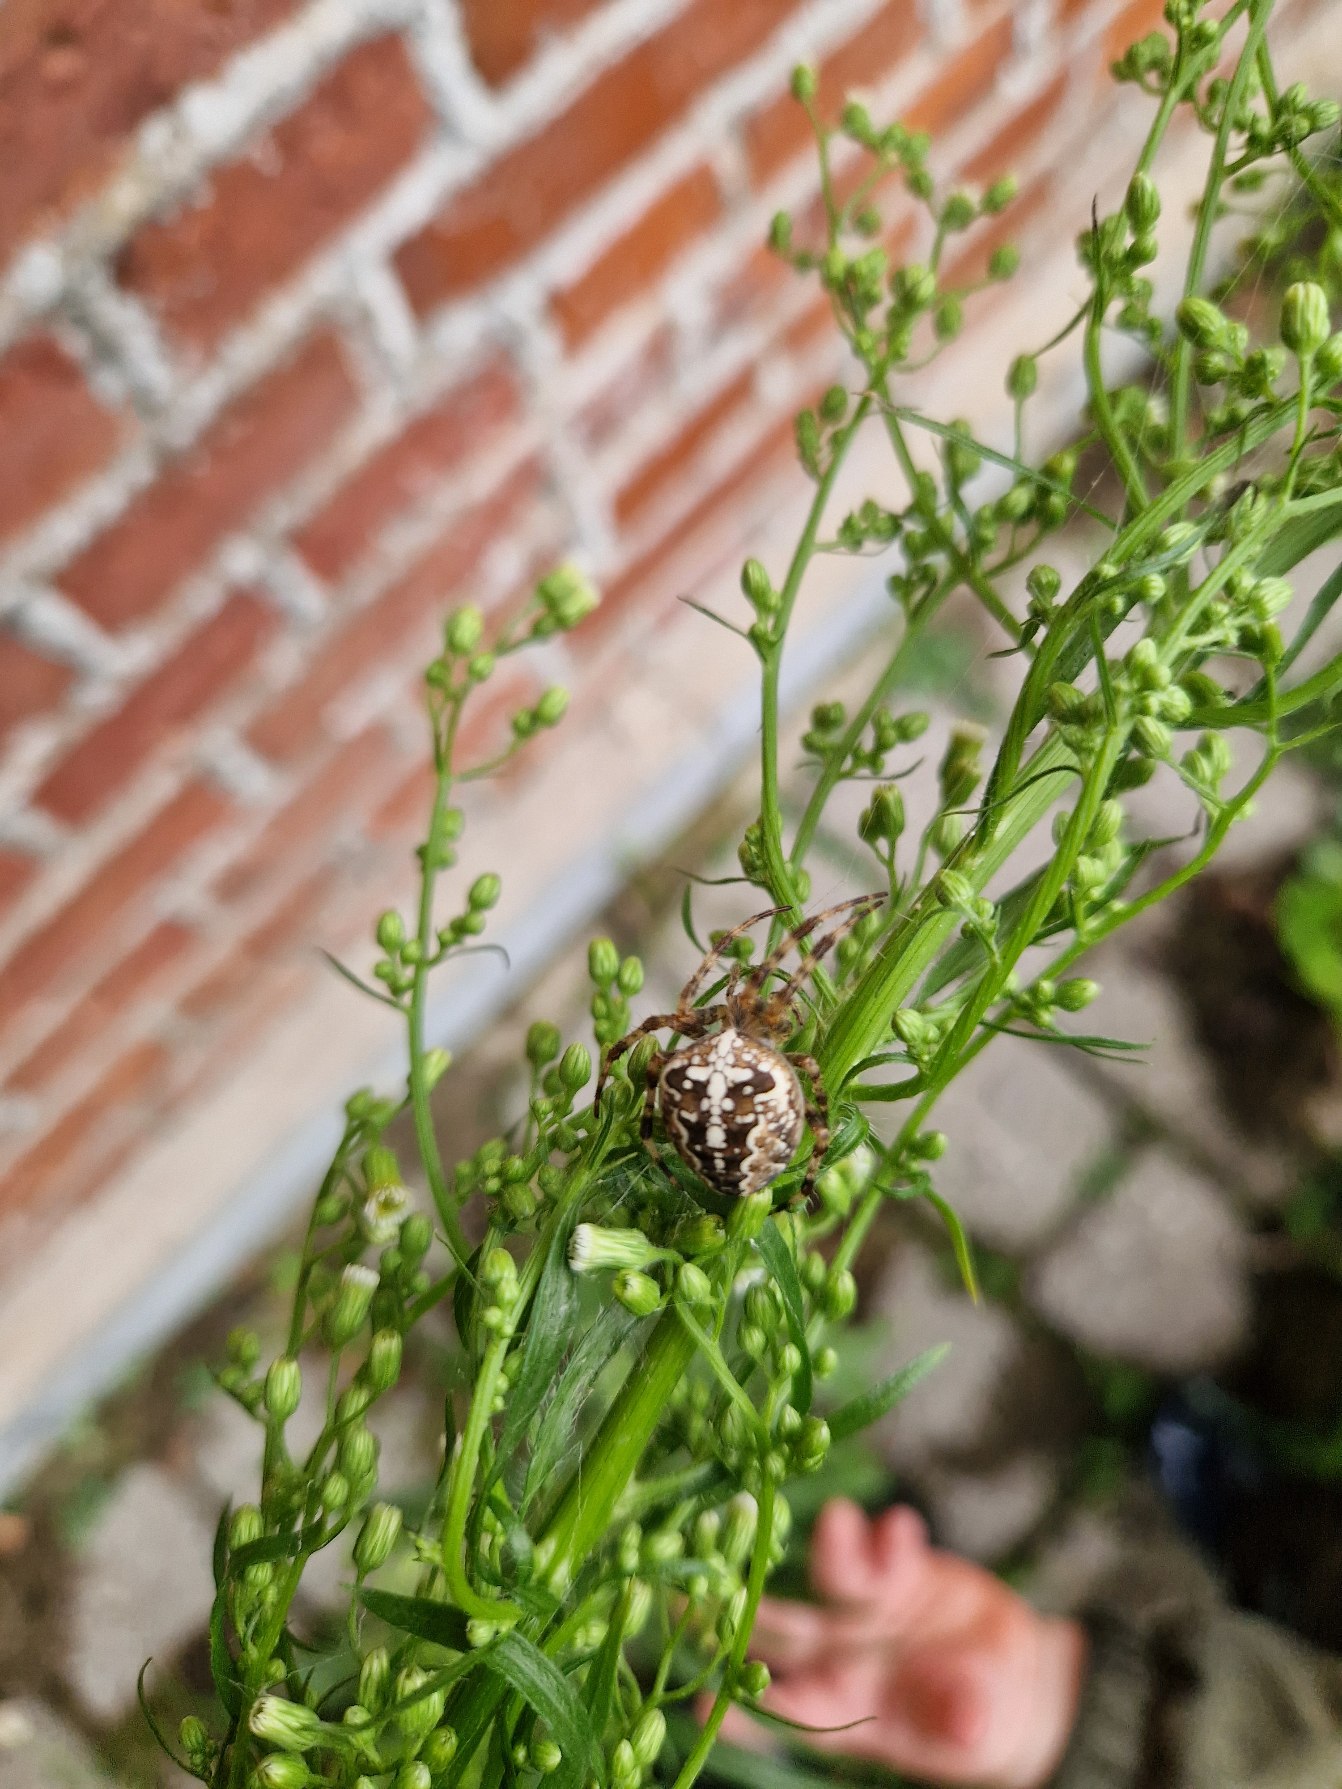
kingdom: Animalia
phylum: Arthropoda
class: Arachnida
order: Araneae
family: Araneidae
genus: Araneus
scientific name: Araneus diadematus
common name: Korsedderkop
